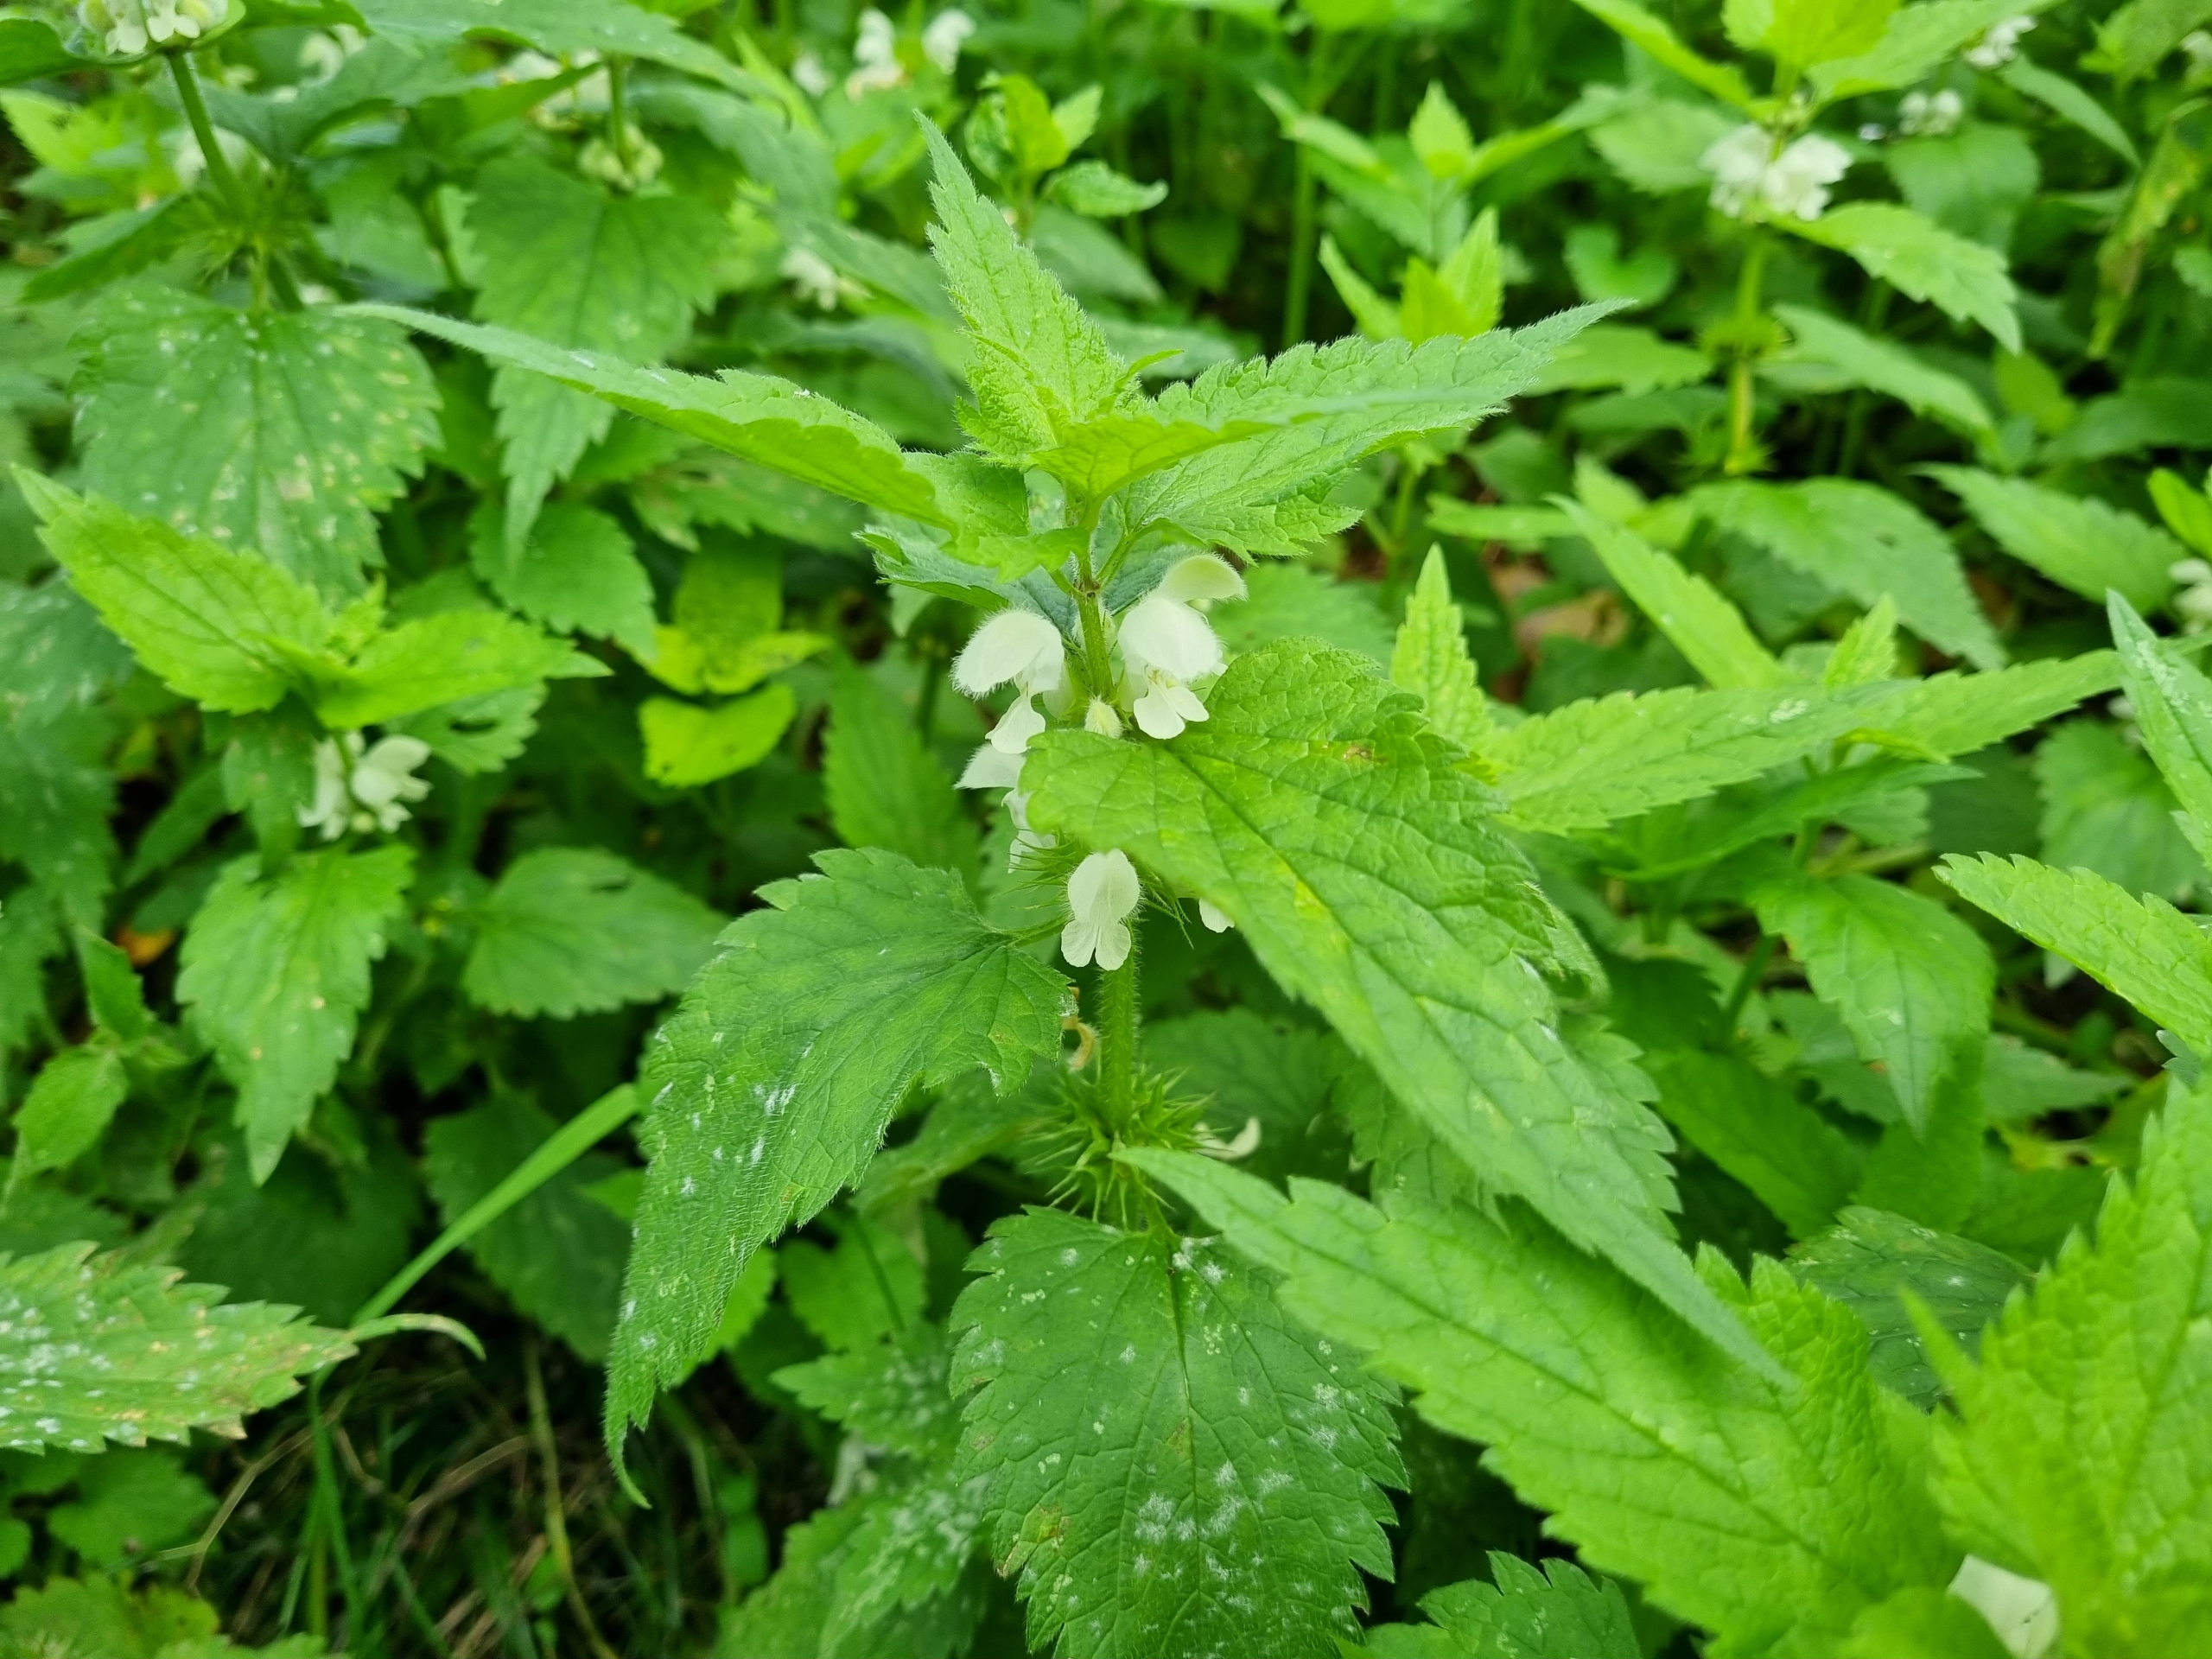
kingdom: Plantae
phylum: Tracheophyta
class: Magnoliopsida
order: Lamiales
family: Lamiaceae
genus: Lamium
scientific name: Lamium album
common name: Døvnælde
